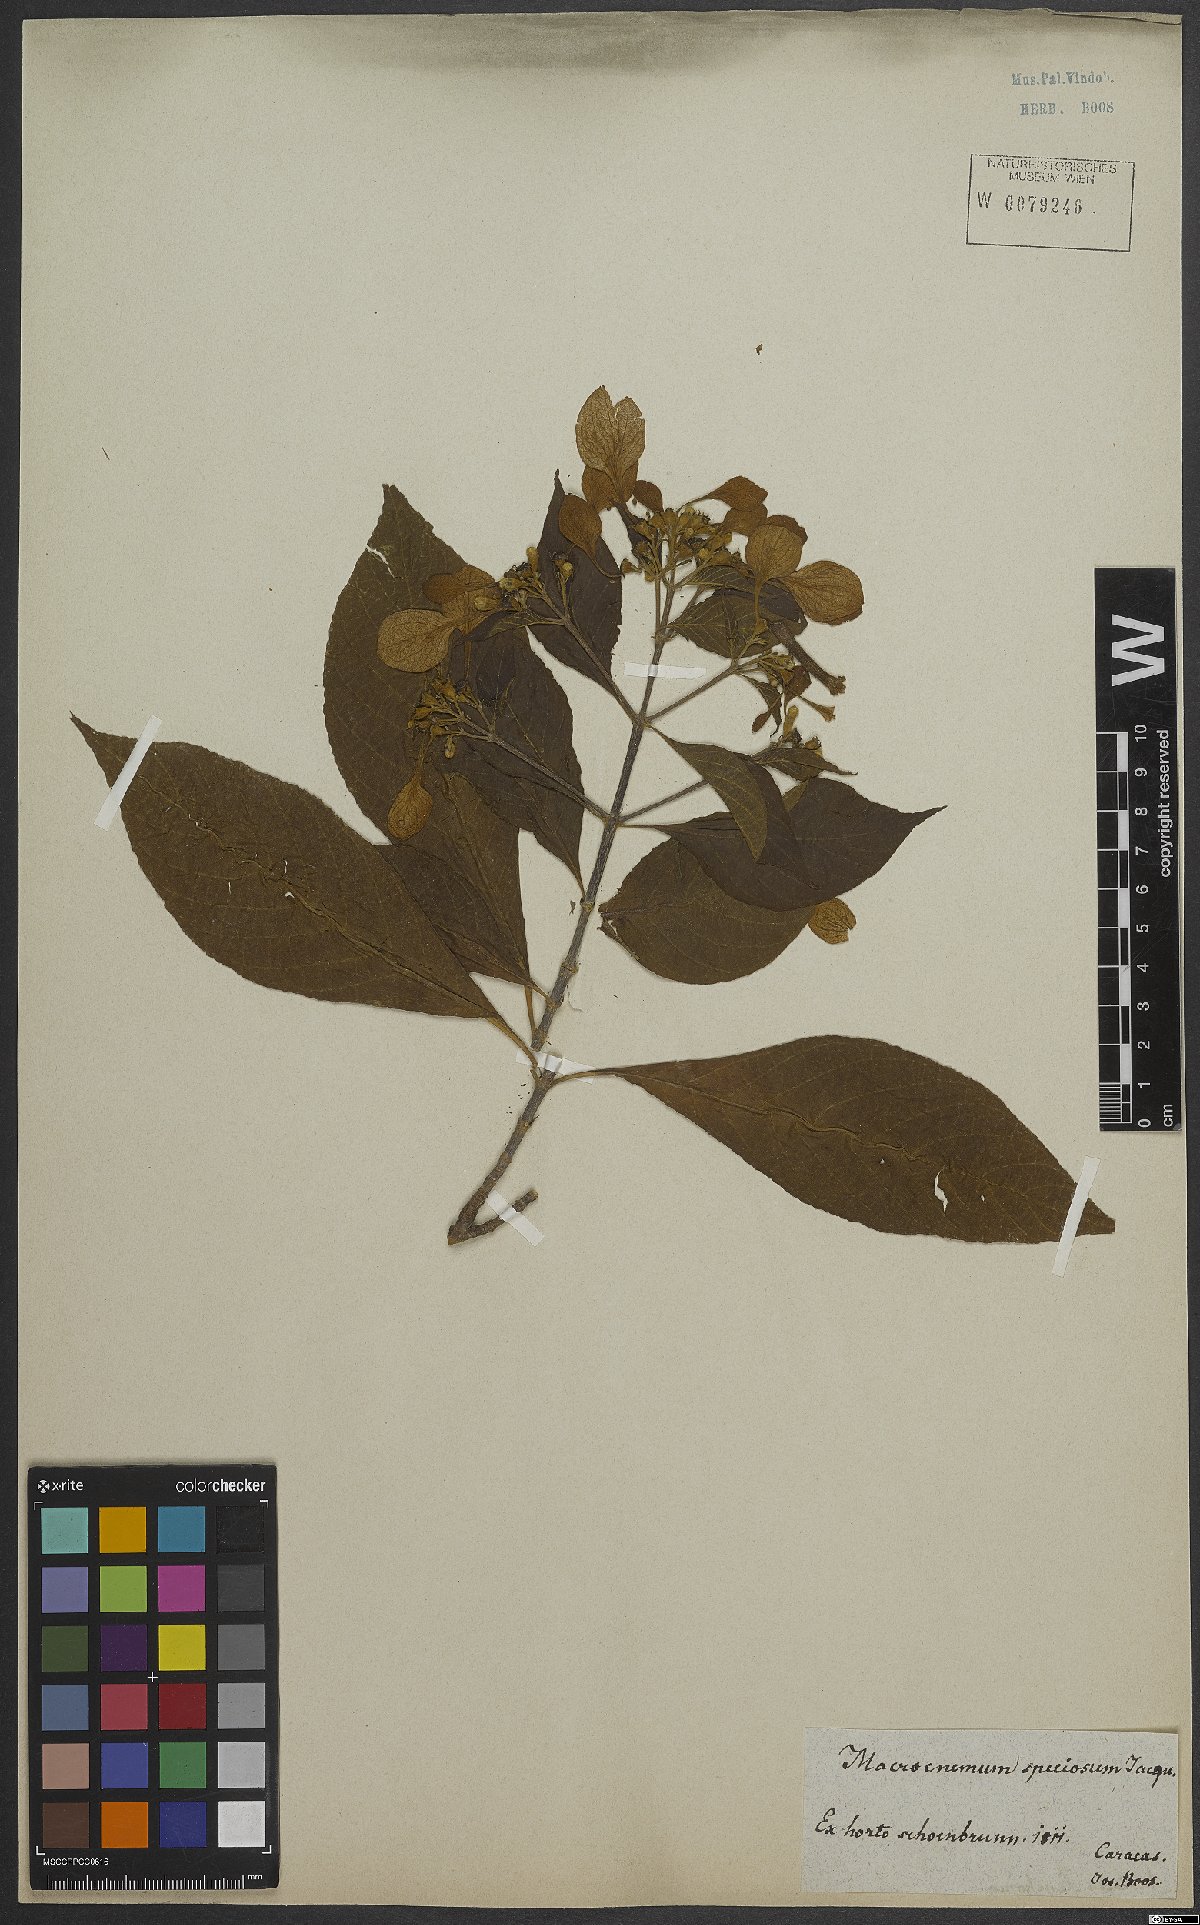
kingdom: Plantae
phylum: Tracheophyta
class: Magnoliopsida
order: Gentianales
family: Rubiaceae
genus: Pogonopus
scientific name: Pogonopus speciosus
